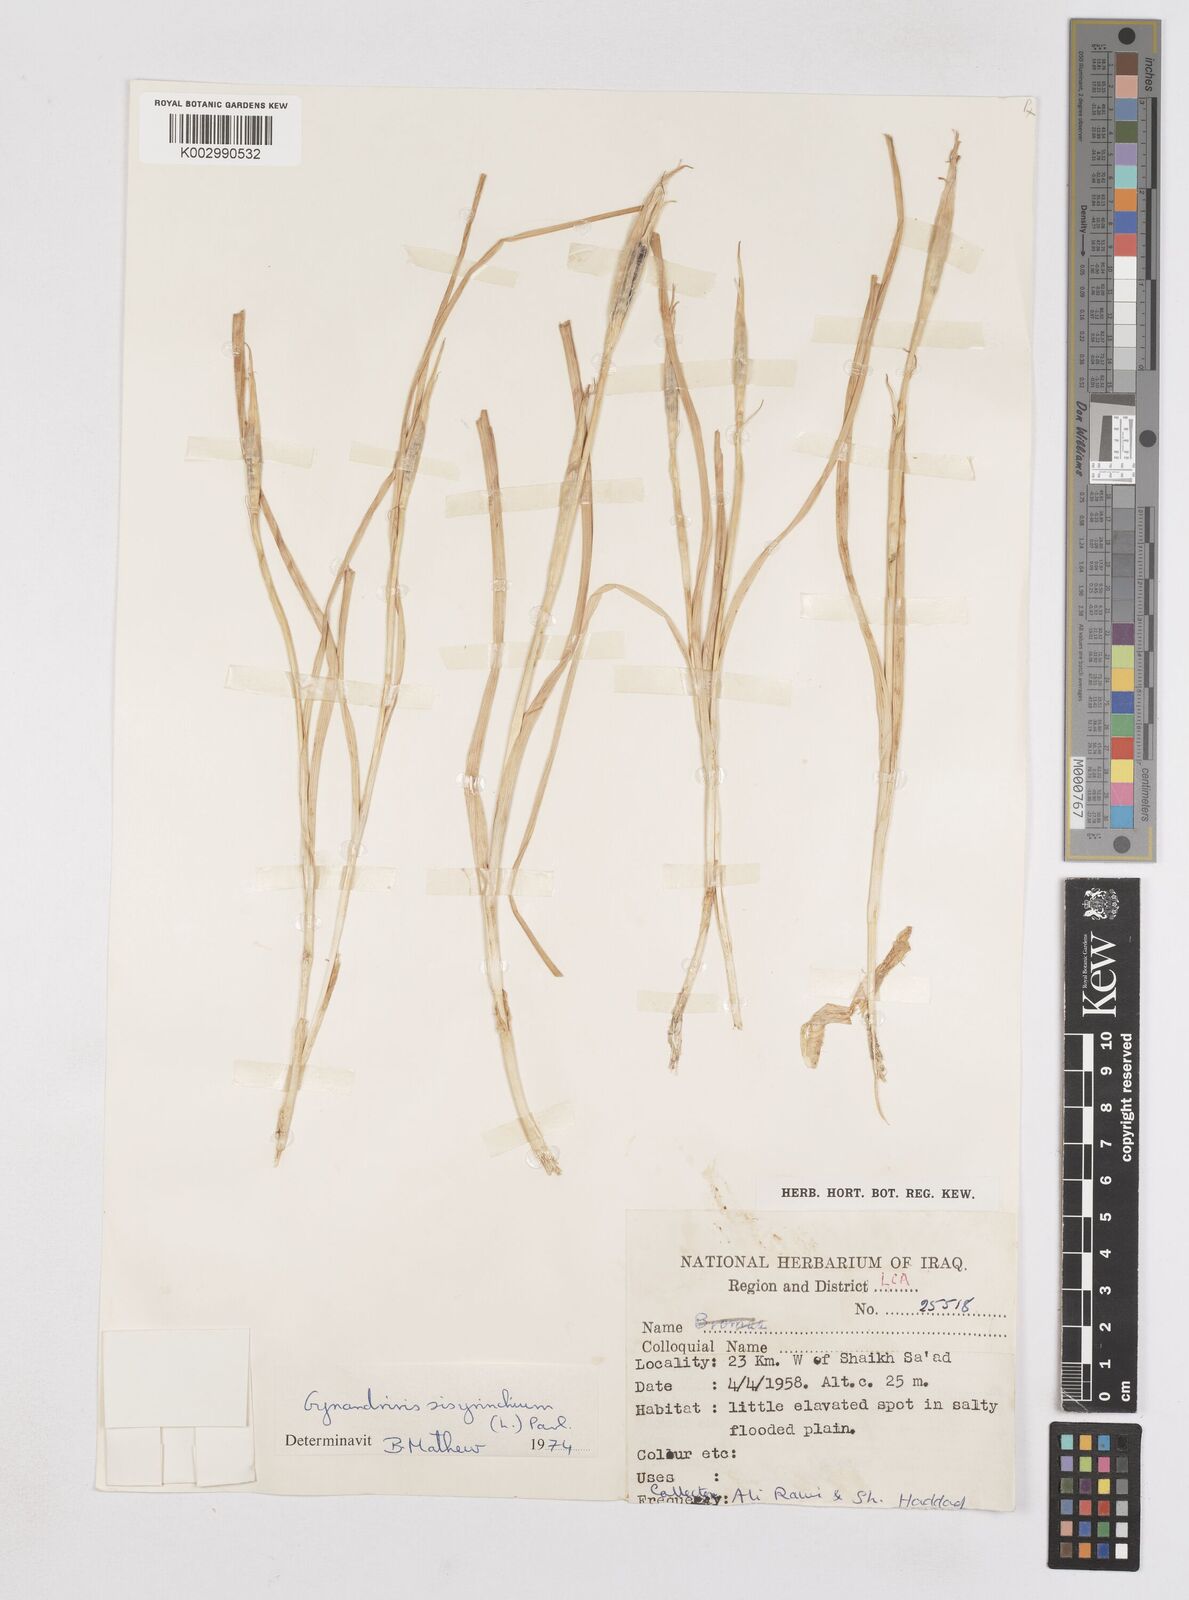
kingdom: Plantae
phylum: Tracheophyta
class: Liliopsida
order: Asparagales
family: Iridaceae
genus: Moraea
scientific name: Moraea sisyrinchium
